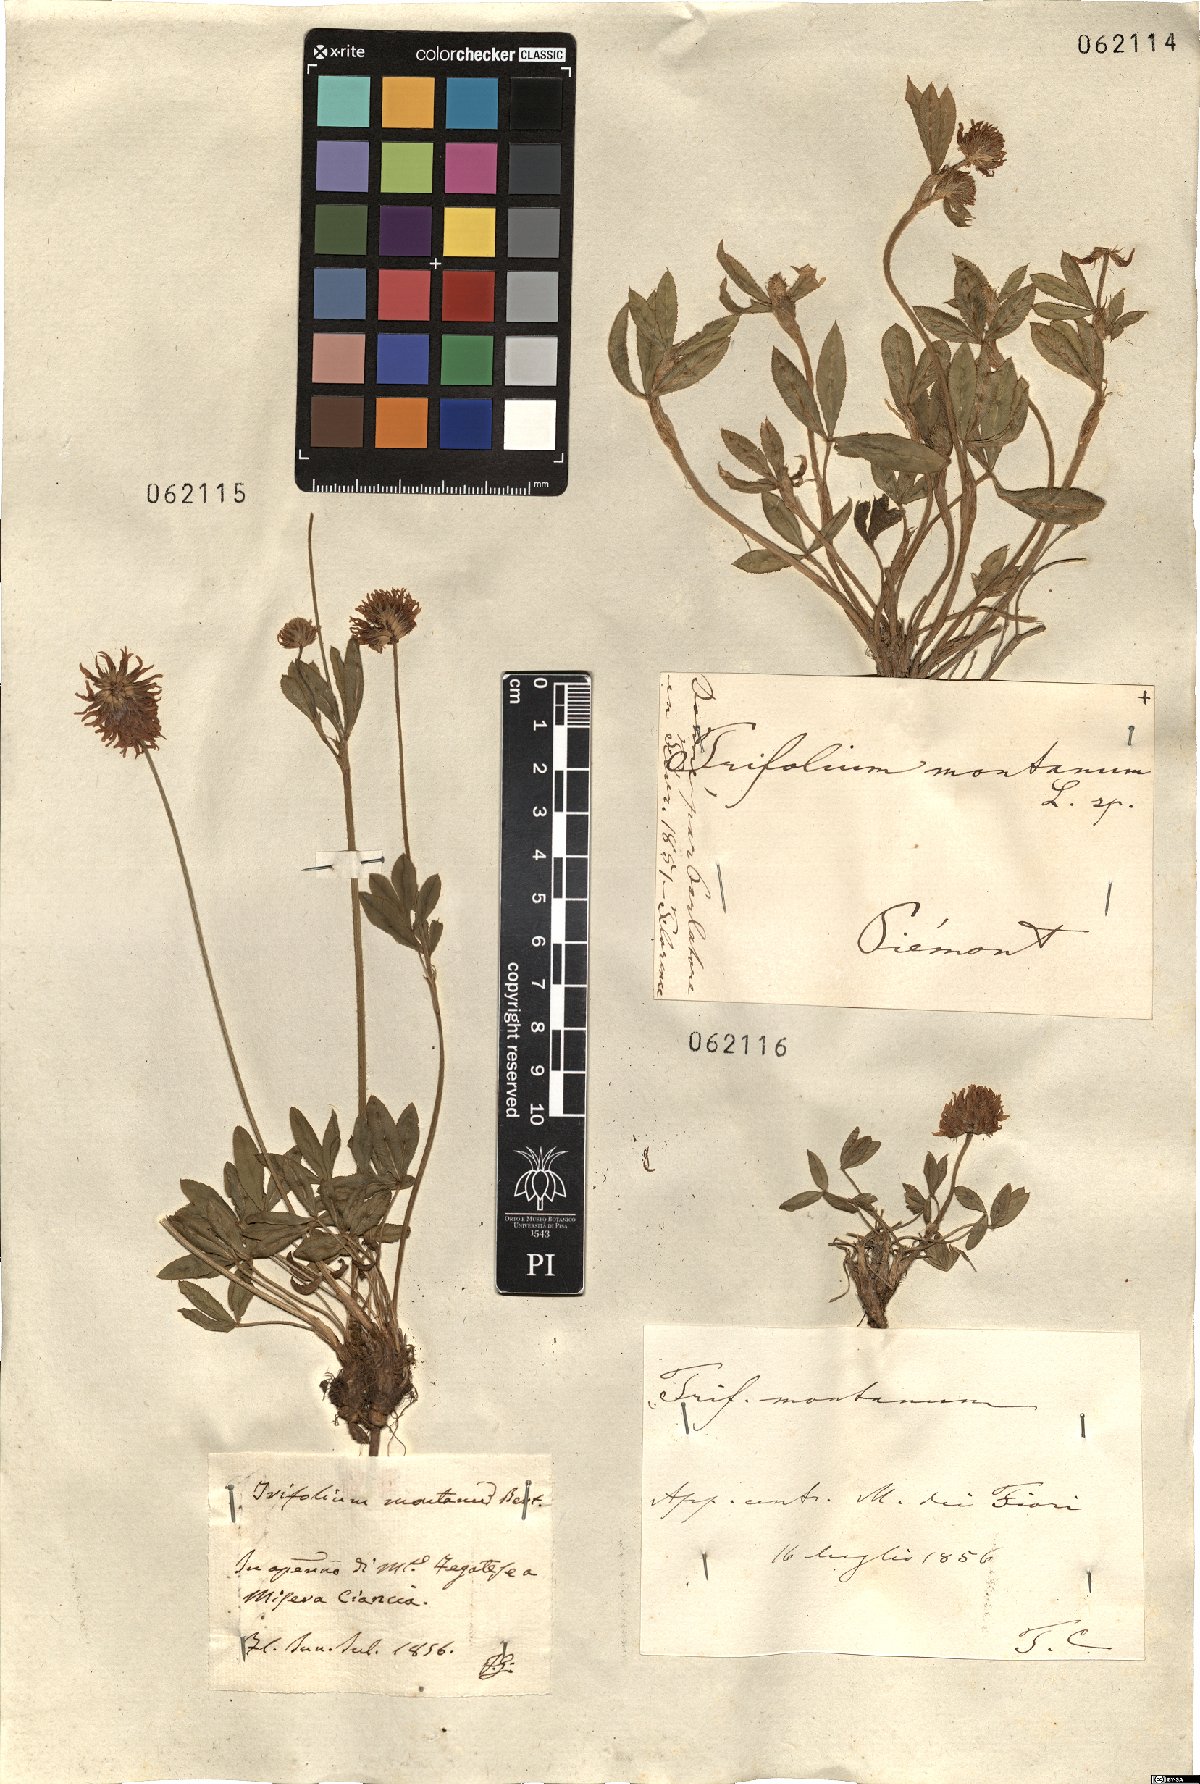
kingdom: Plantae
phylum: Tracheophyta
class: Magnoliopsida
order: Fabales
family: Fabaceae
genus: Trifolium
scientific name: Trifolium montanum
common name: Mountain clover
